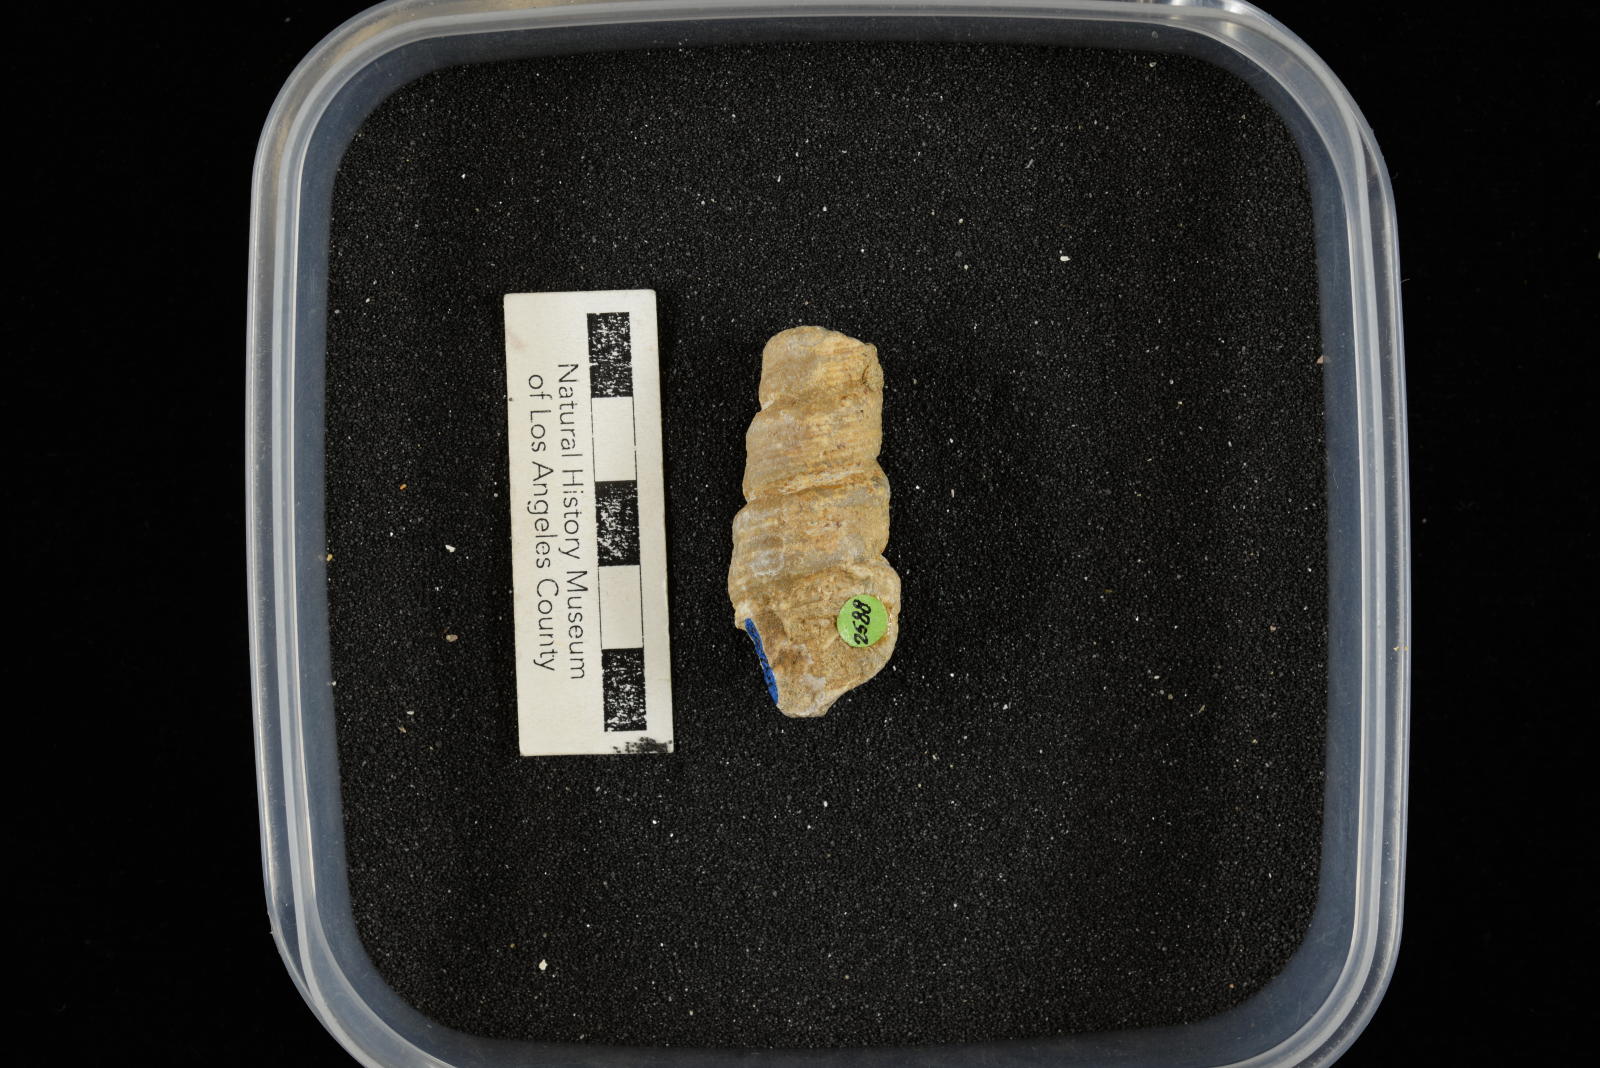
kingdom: Animalia
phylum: Mollusca
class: Gastropoda
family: Turritellidae
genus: Turritella
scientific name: Turritella chaneyi
